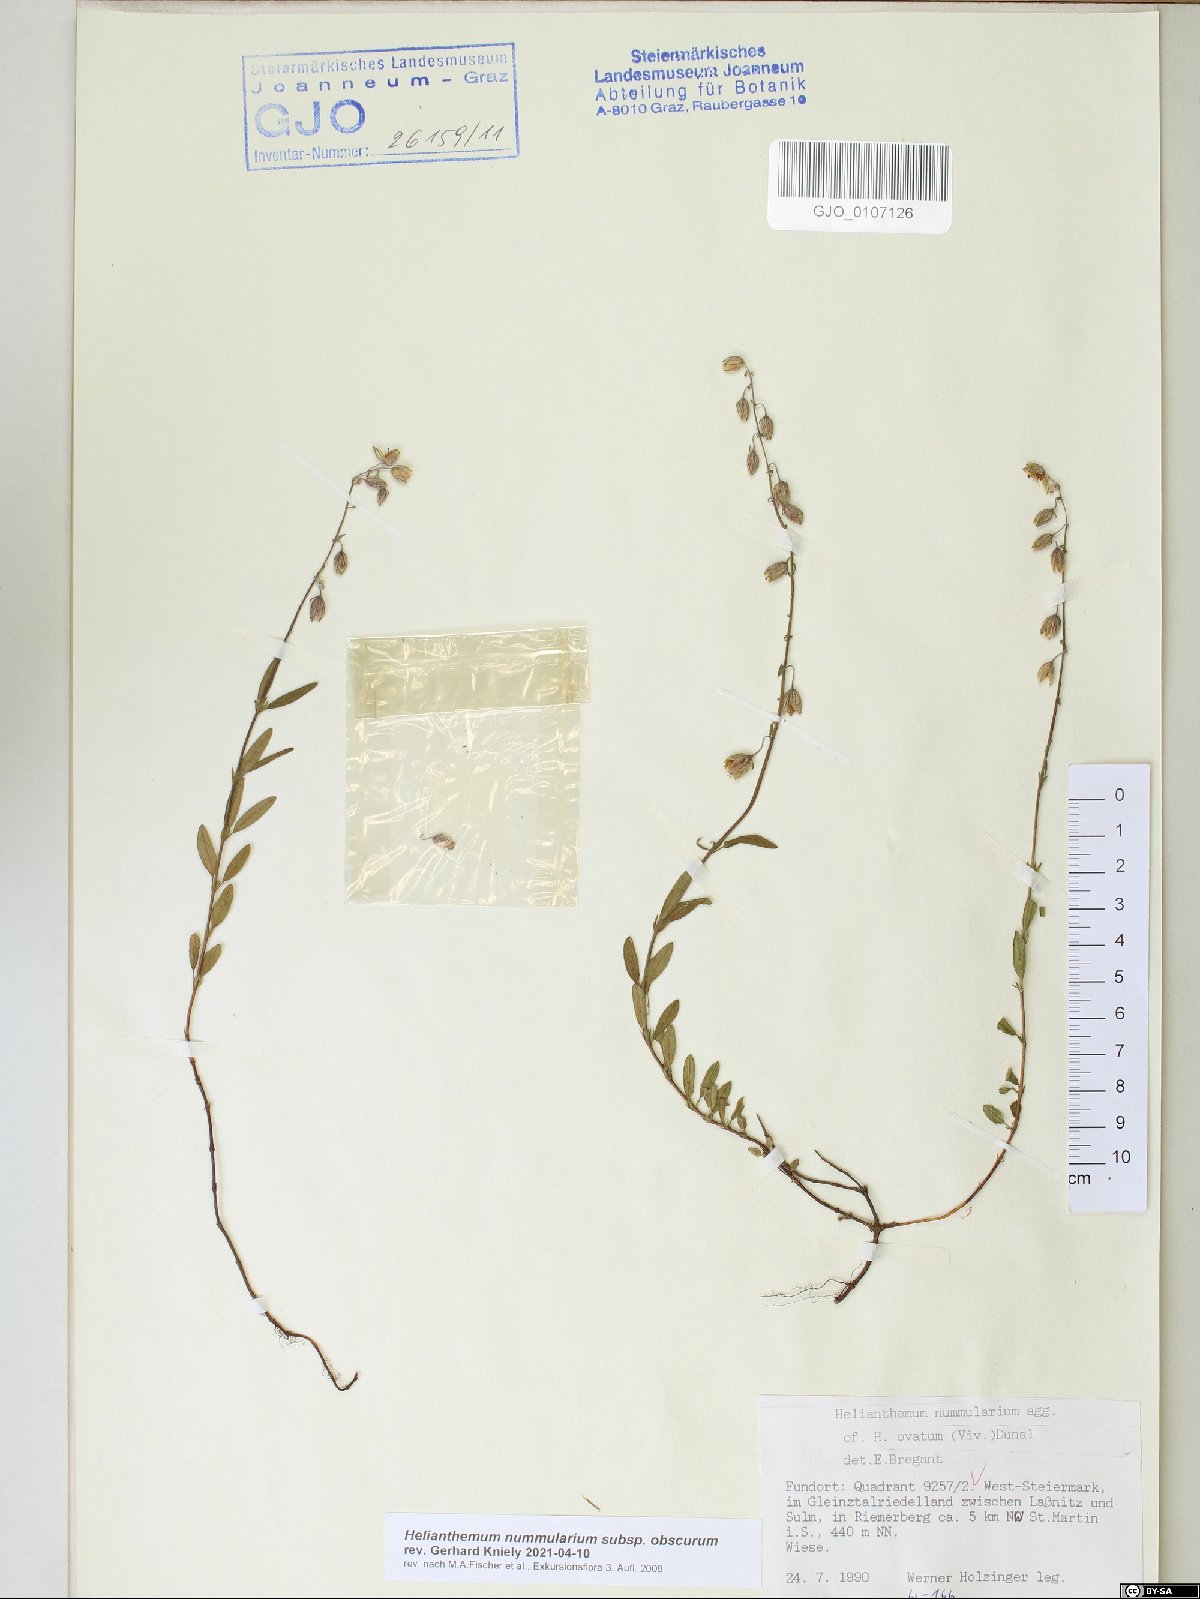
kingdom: Plantae
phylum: Tracheophyta
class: Magnoliopsida
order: Malvales
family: Cistaceae
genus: Helianthemum
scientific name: Helianthemum nummularium
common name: Common rock-rose
